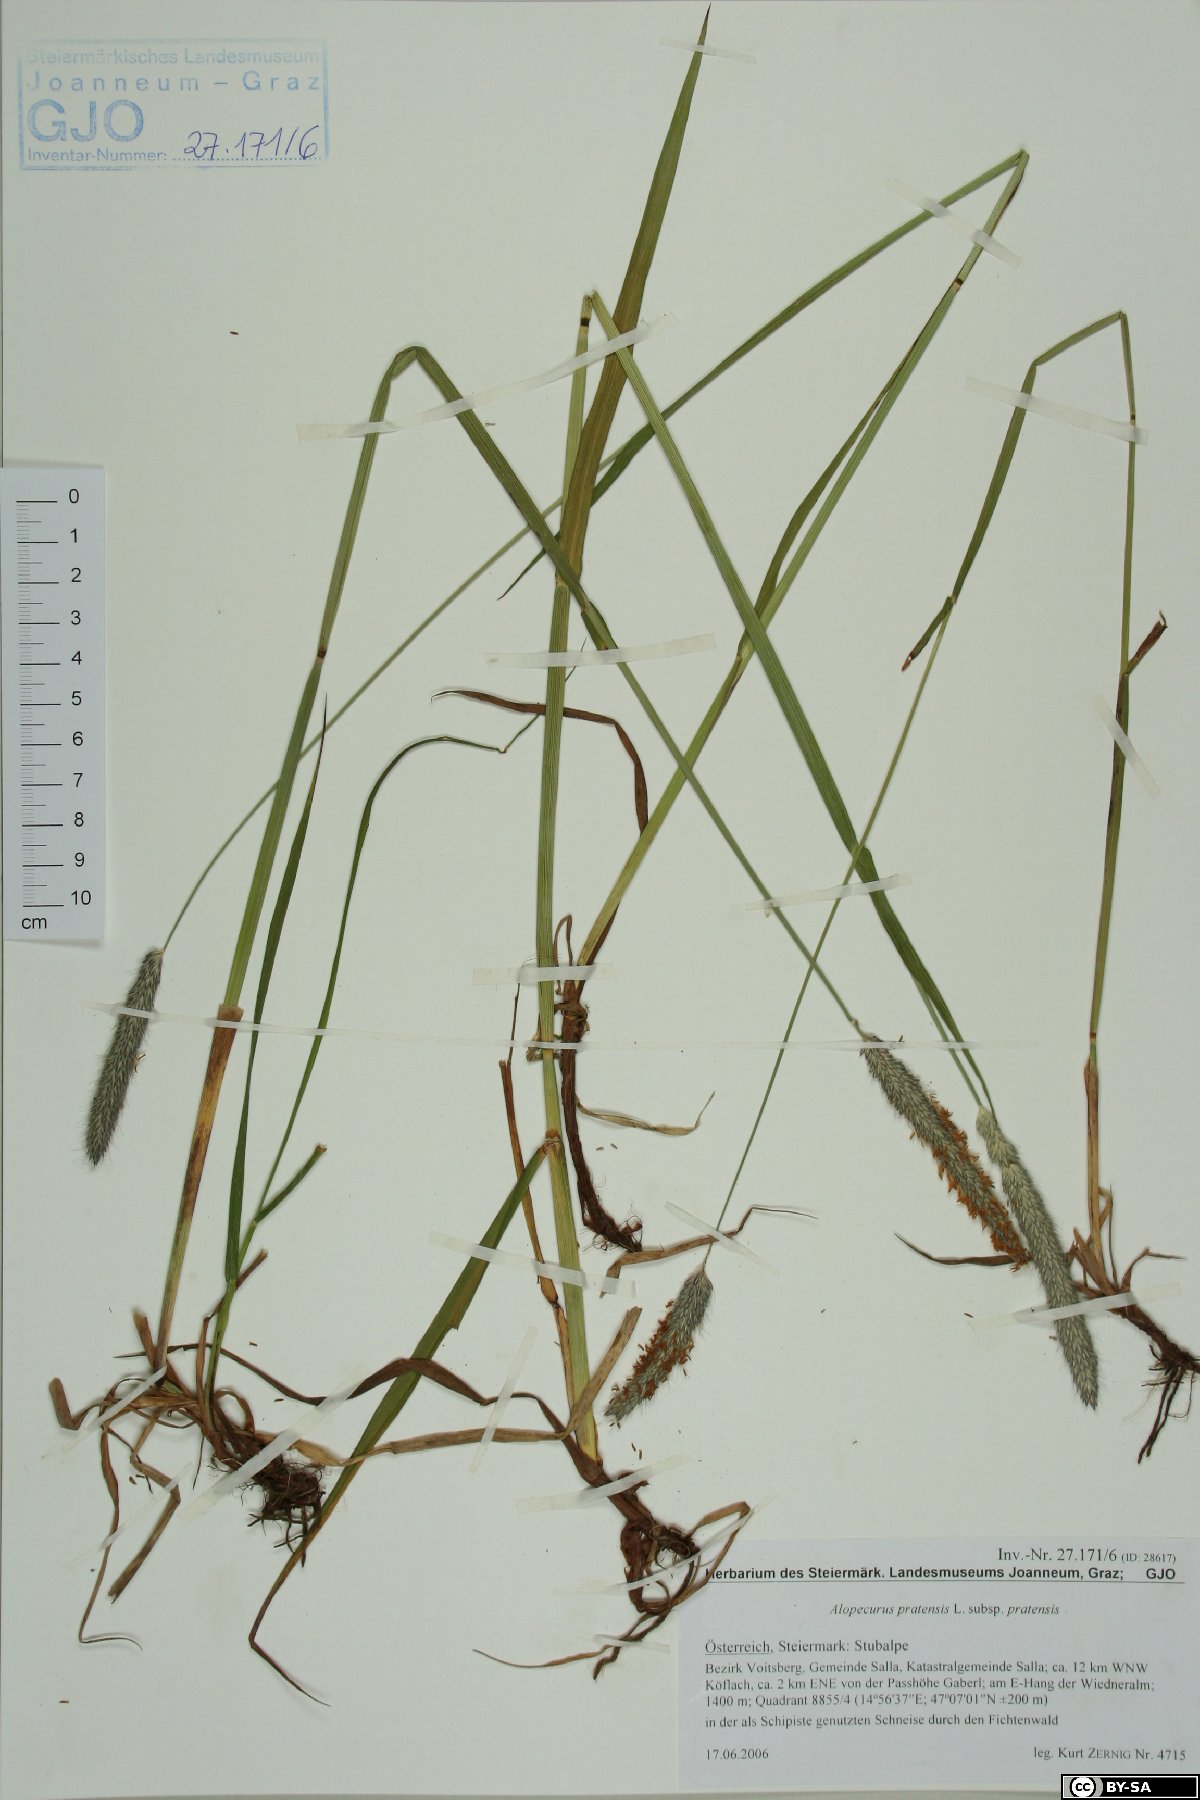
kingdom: Plantae
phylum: Tracheophyta
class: Liliopsida
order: Poales
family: Poaceae
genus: Alopecurus
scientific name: Alopecurus pratensis
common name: Meadow foxtail
